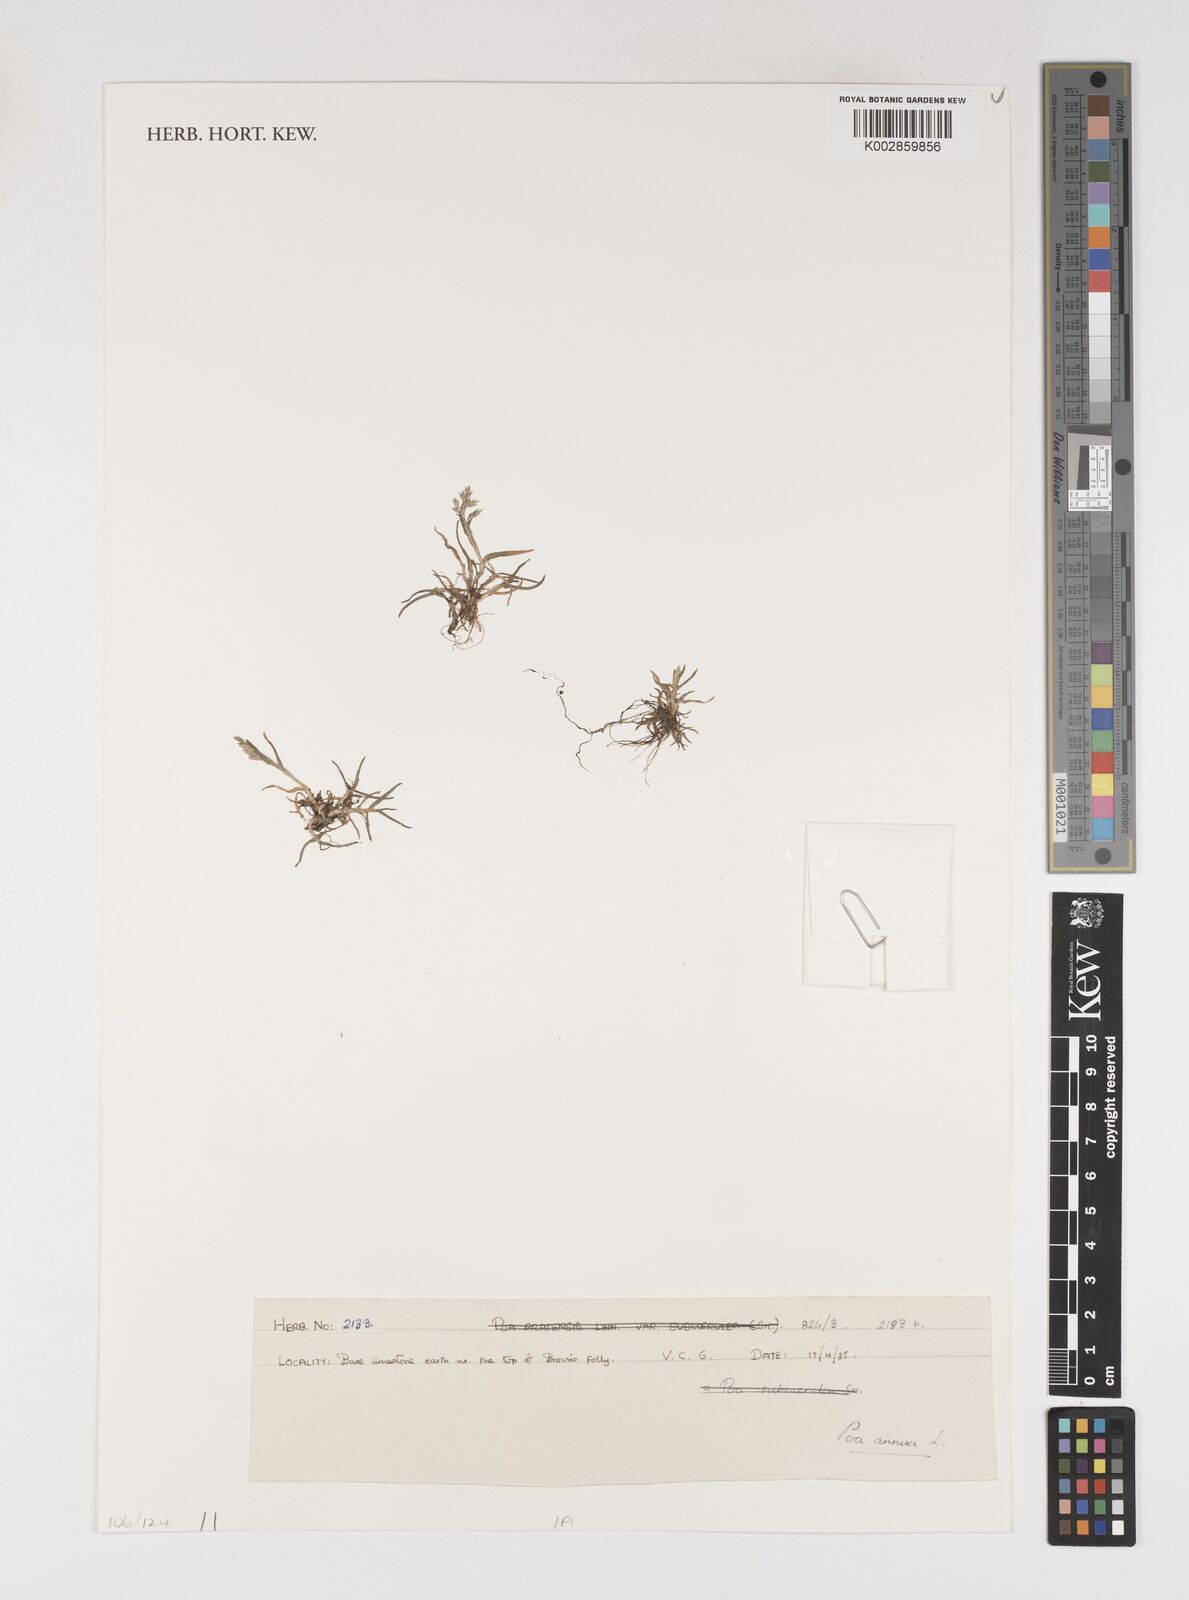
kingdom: Plantae
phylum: Tracheophyta
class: Liliopsida
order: Poales
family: Poaceae
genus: Poa
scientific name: Poa annua
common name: Annual bluegrass
